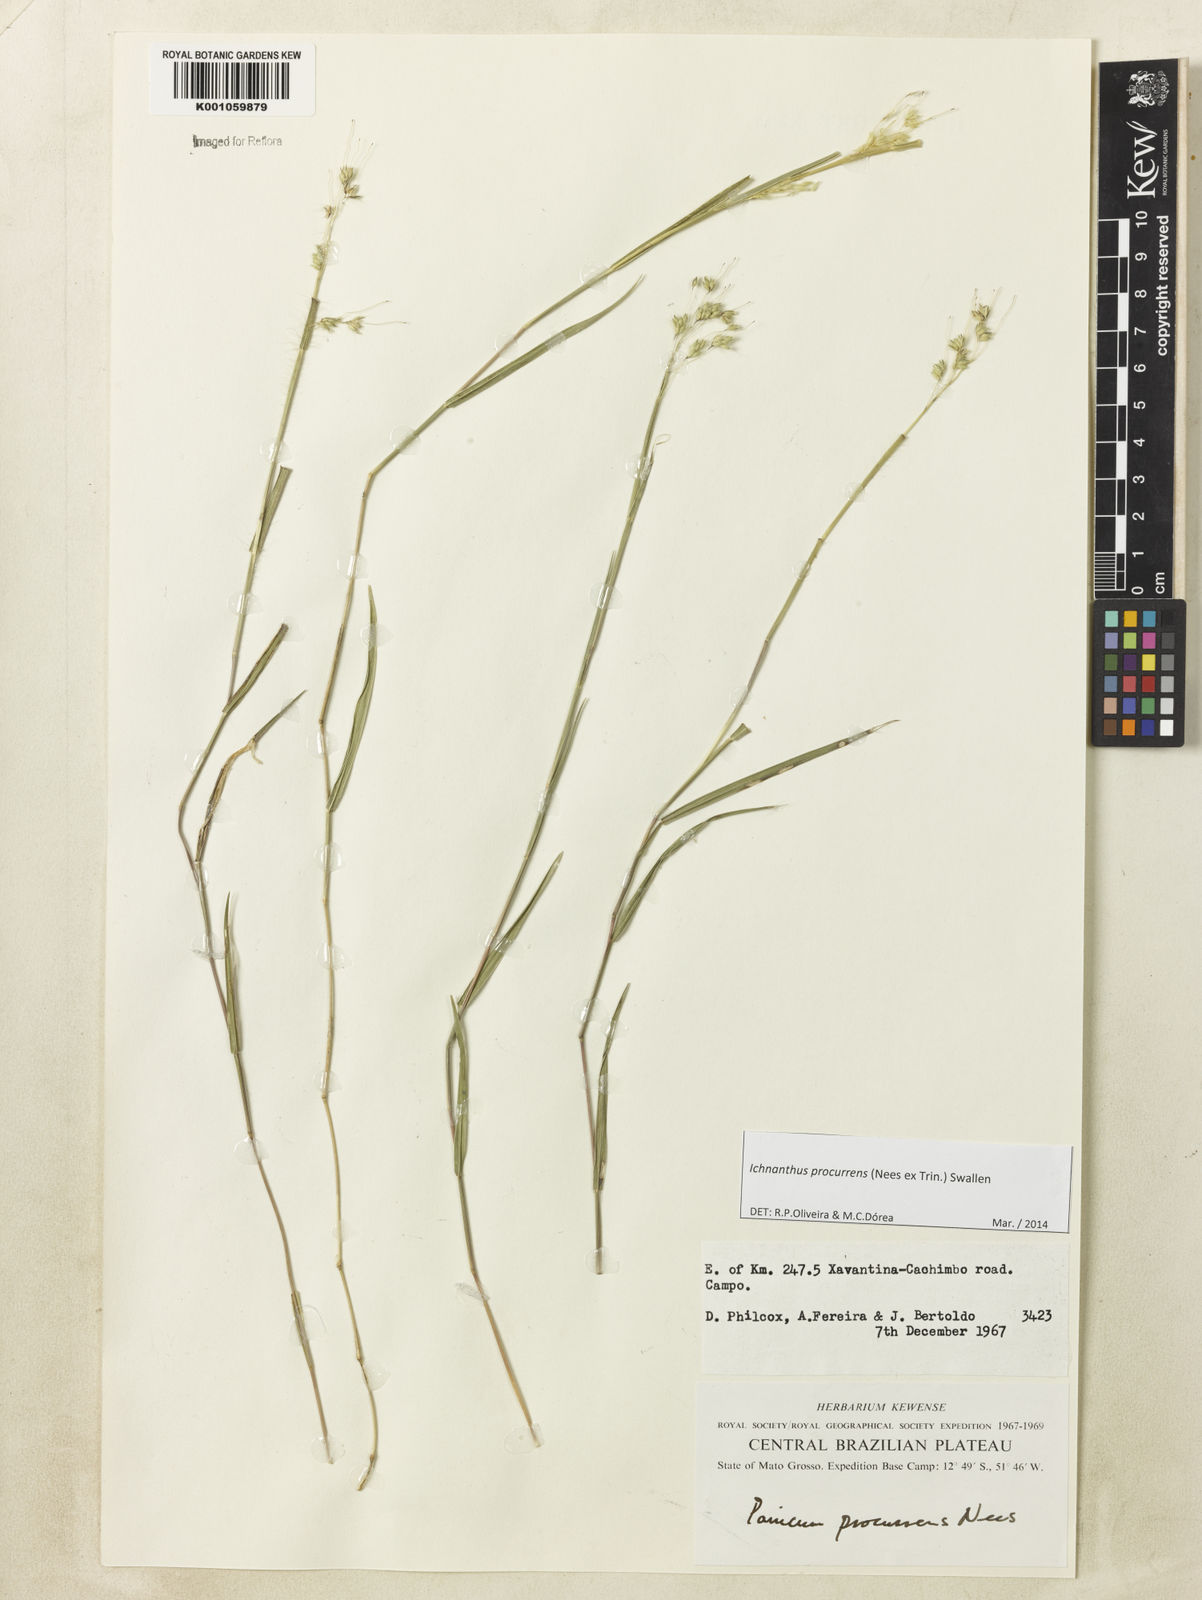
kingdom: Plantae
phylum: Tracheophyta
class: Liliopsida
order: Poales
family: Poaceae
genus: Oedochloa
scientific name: Oedochloa procurrens
